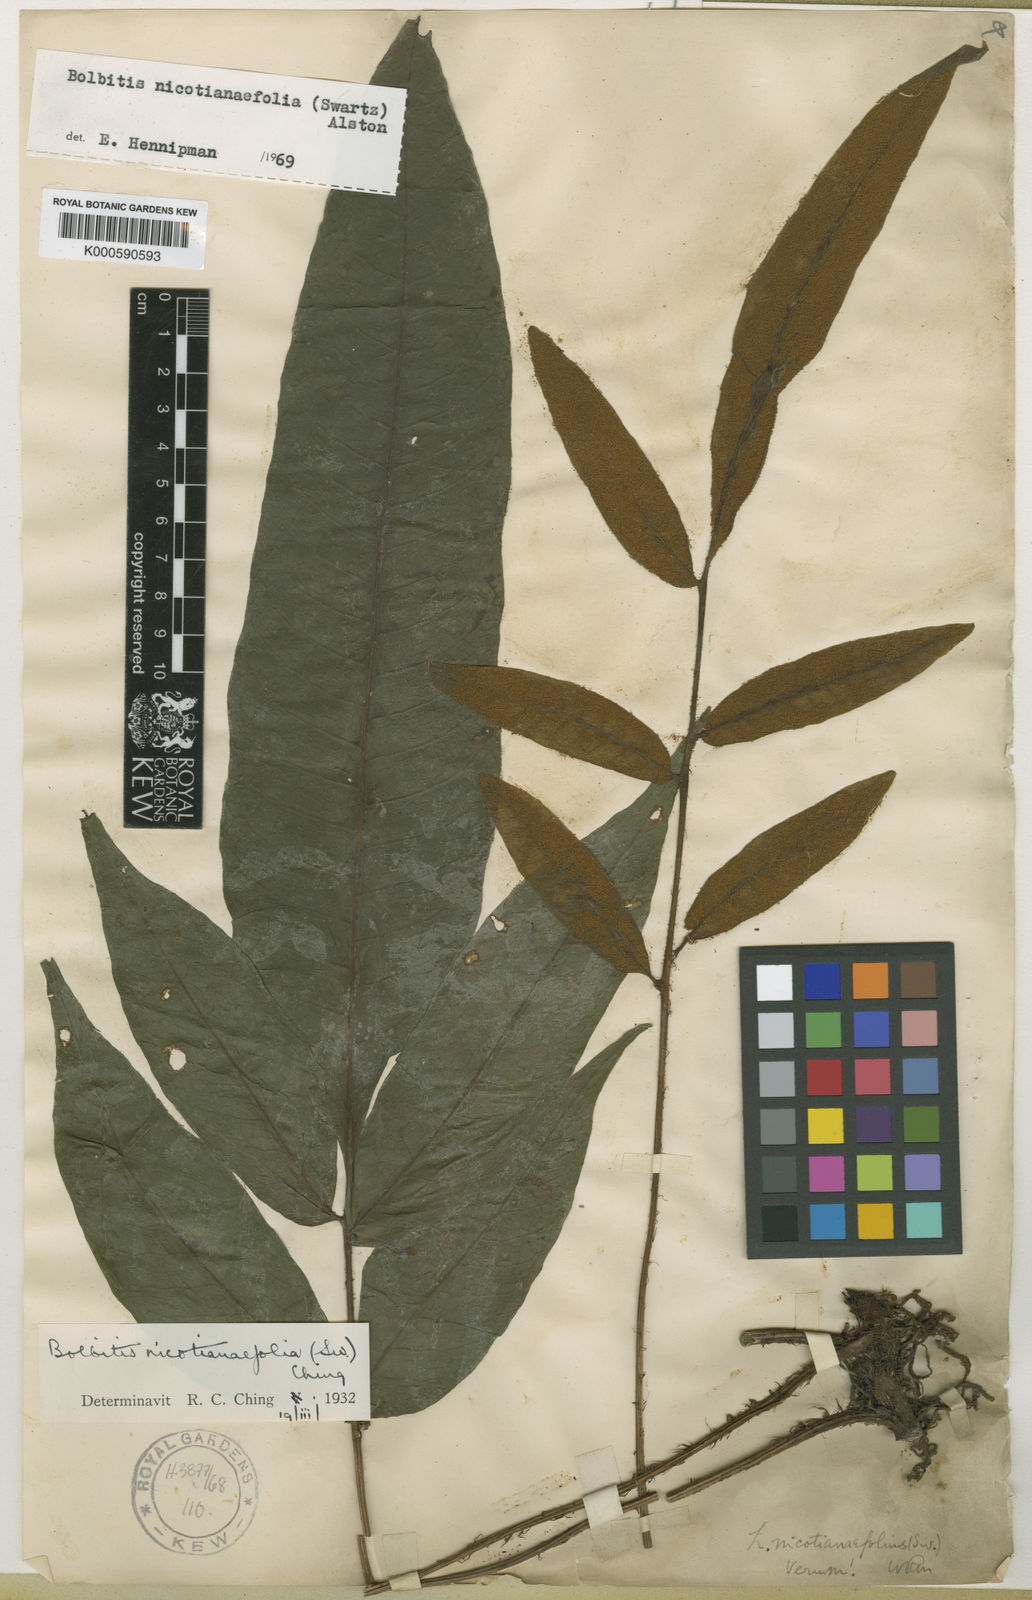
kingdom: Plantae
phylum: Tracheophyta
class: Polypodiopsida
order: Polypodiales
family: Dryopteridaceae
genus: Mickelia
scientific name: Mickelia nicotianifolia
